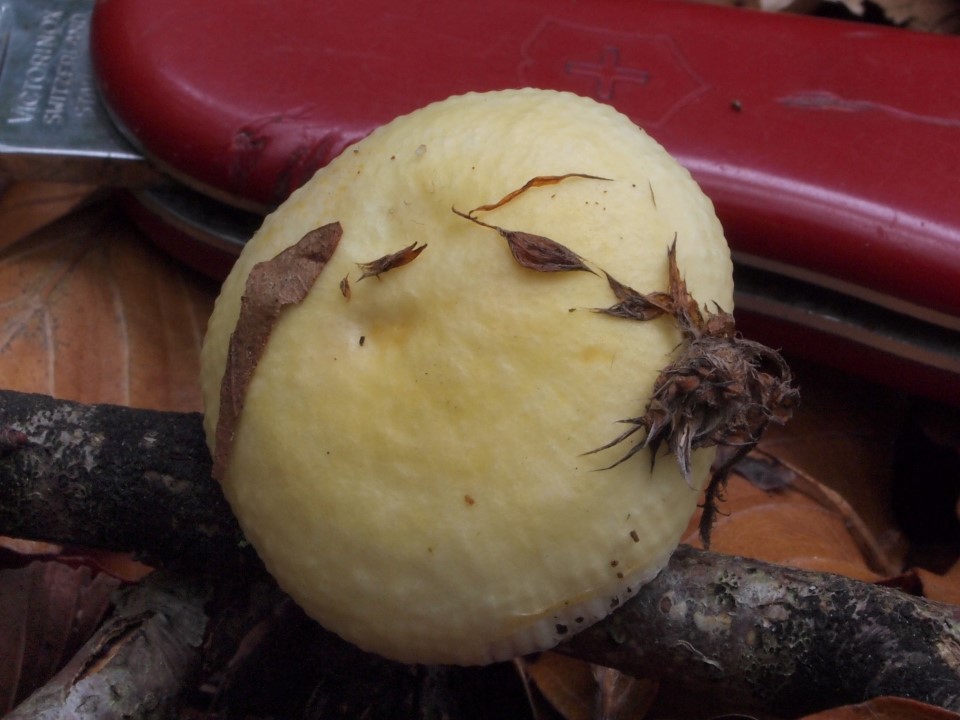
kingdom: Fungi
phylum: Basidiomycota
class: Agaricomycetes
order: Russulales
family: Russulaceae
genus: Russula
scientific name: Russula solaris
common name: sol-skørhat
